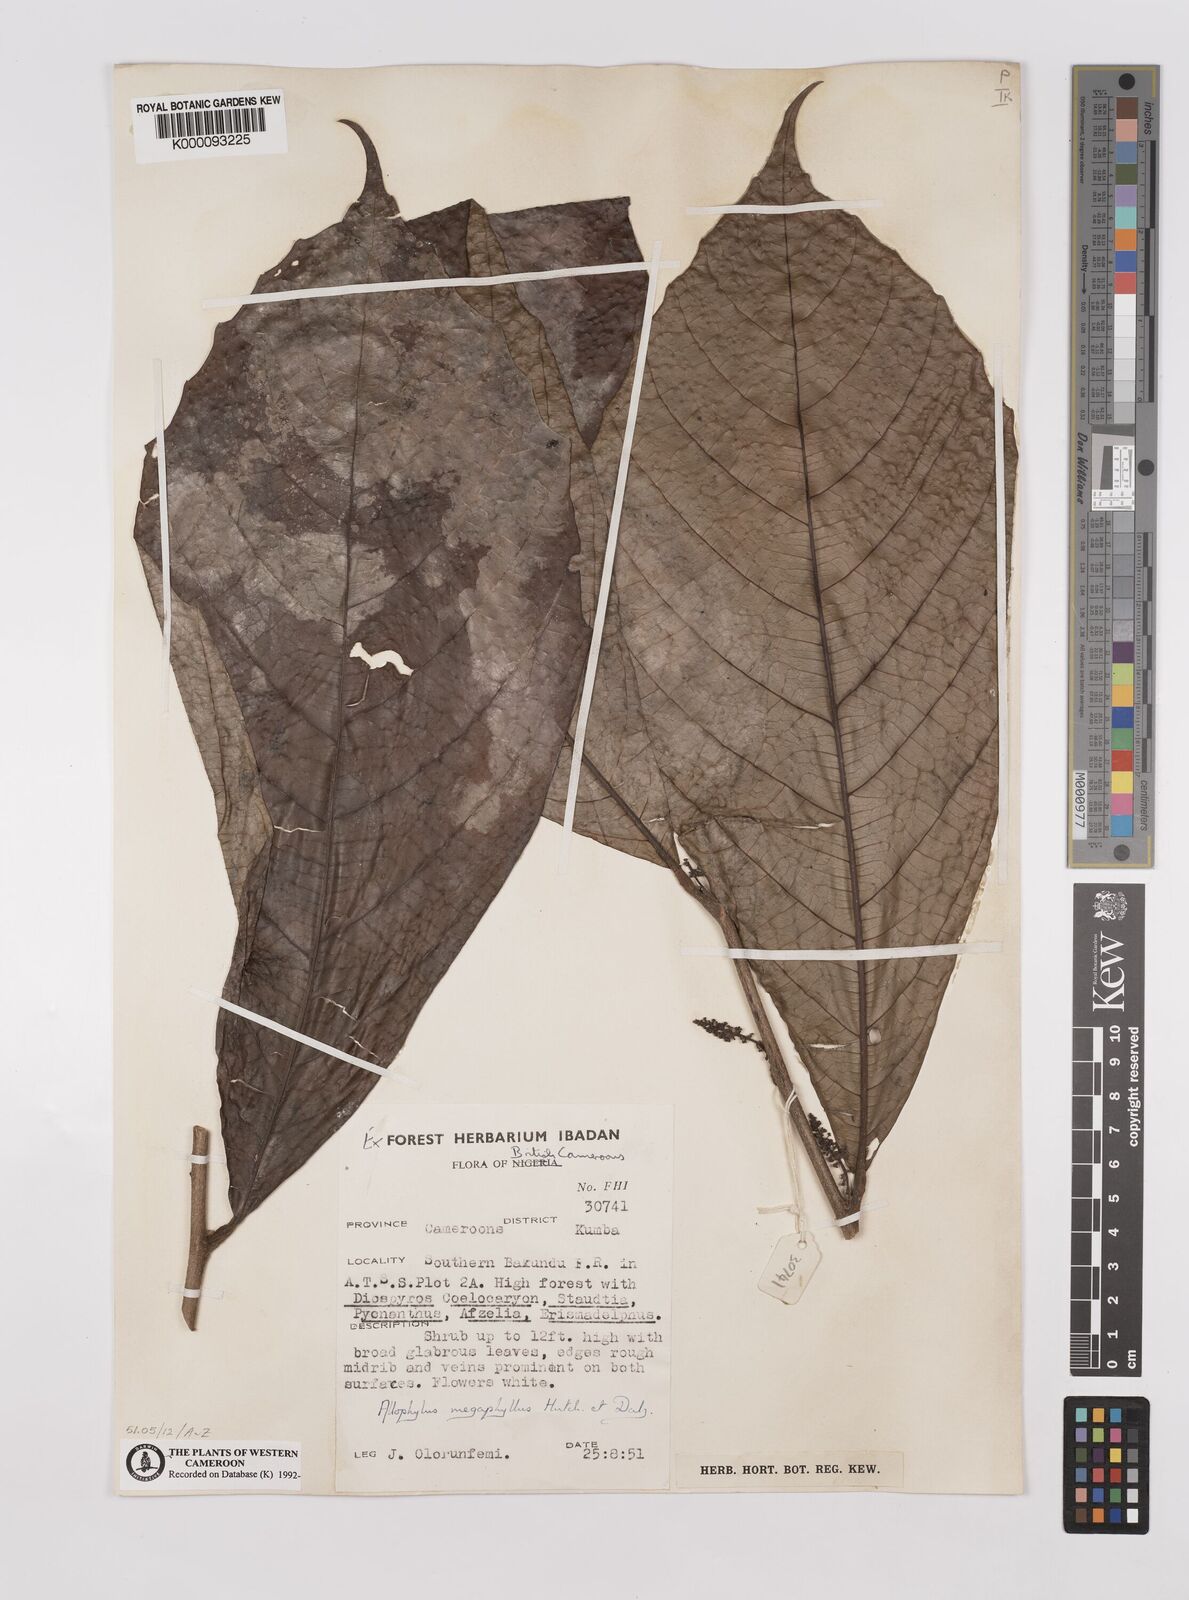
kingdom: Plantae
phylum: Tracheophyta
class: Magnoliopsida
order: Sapindales
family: Sapindaceae
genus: Allophylus
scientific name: Allophylus megaphyllus
